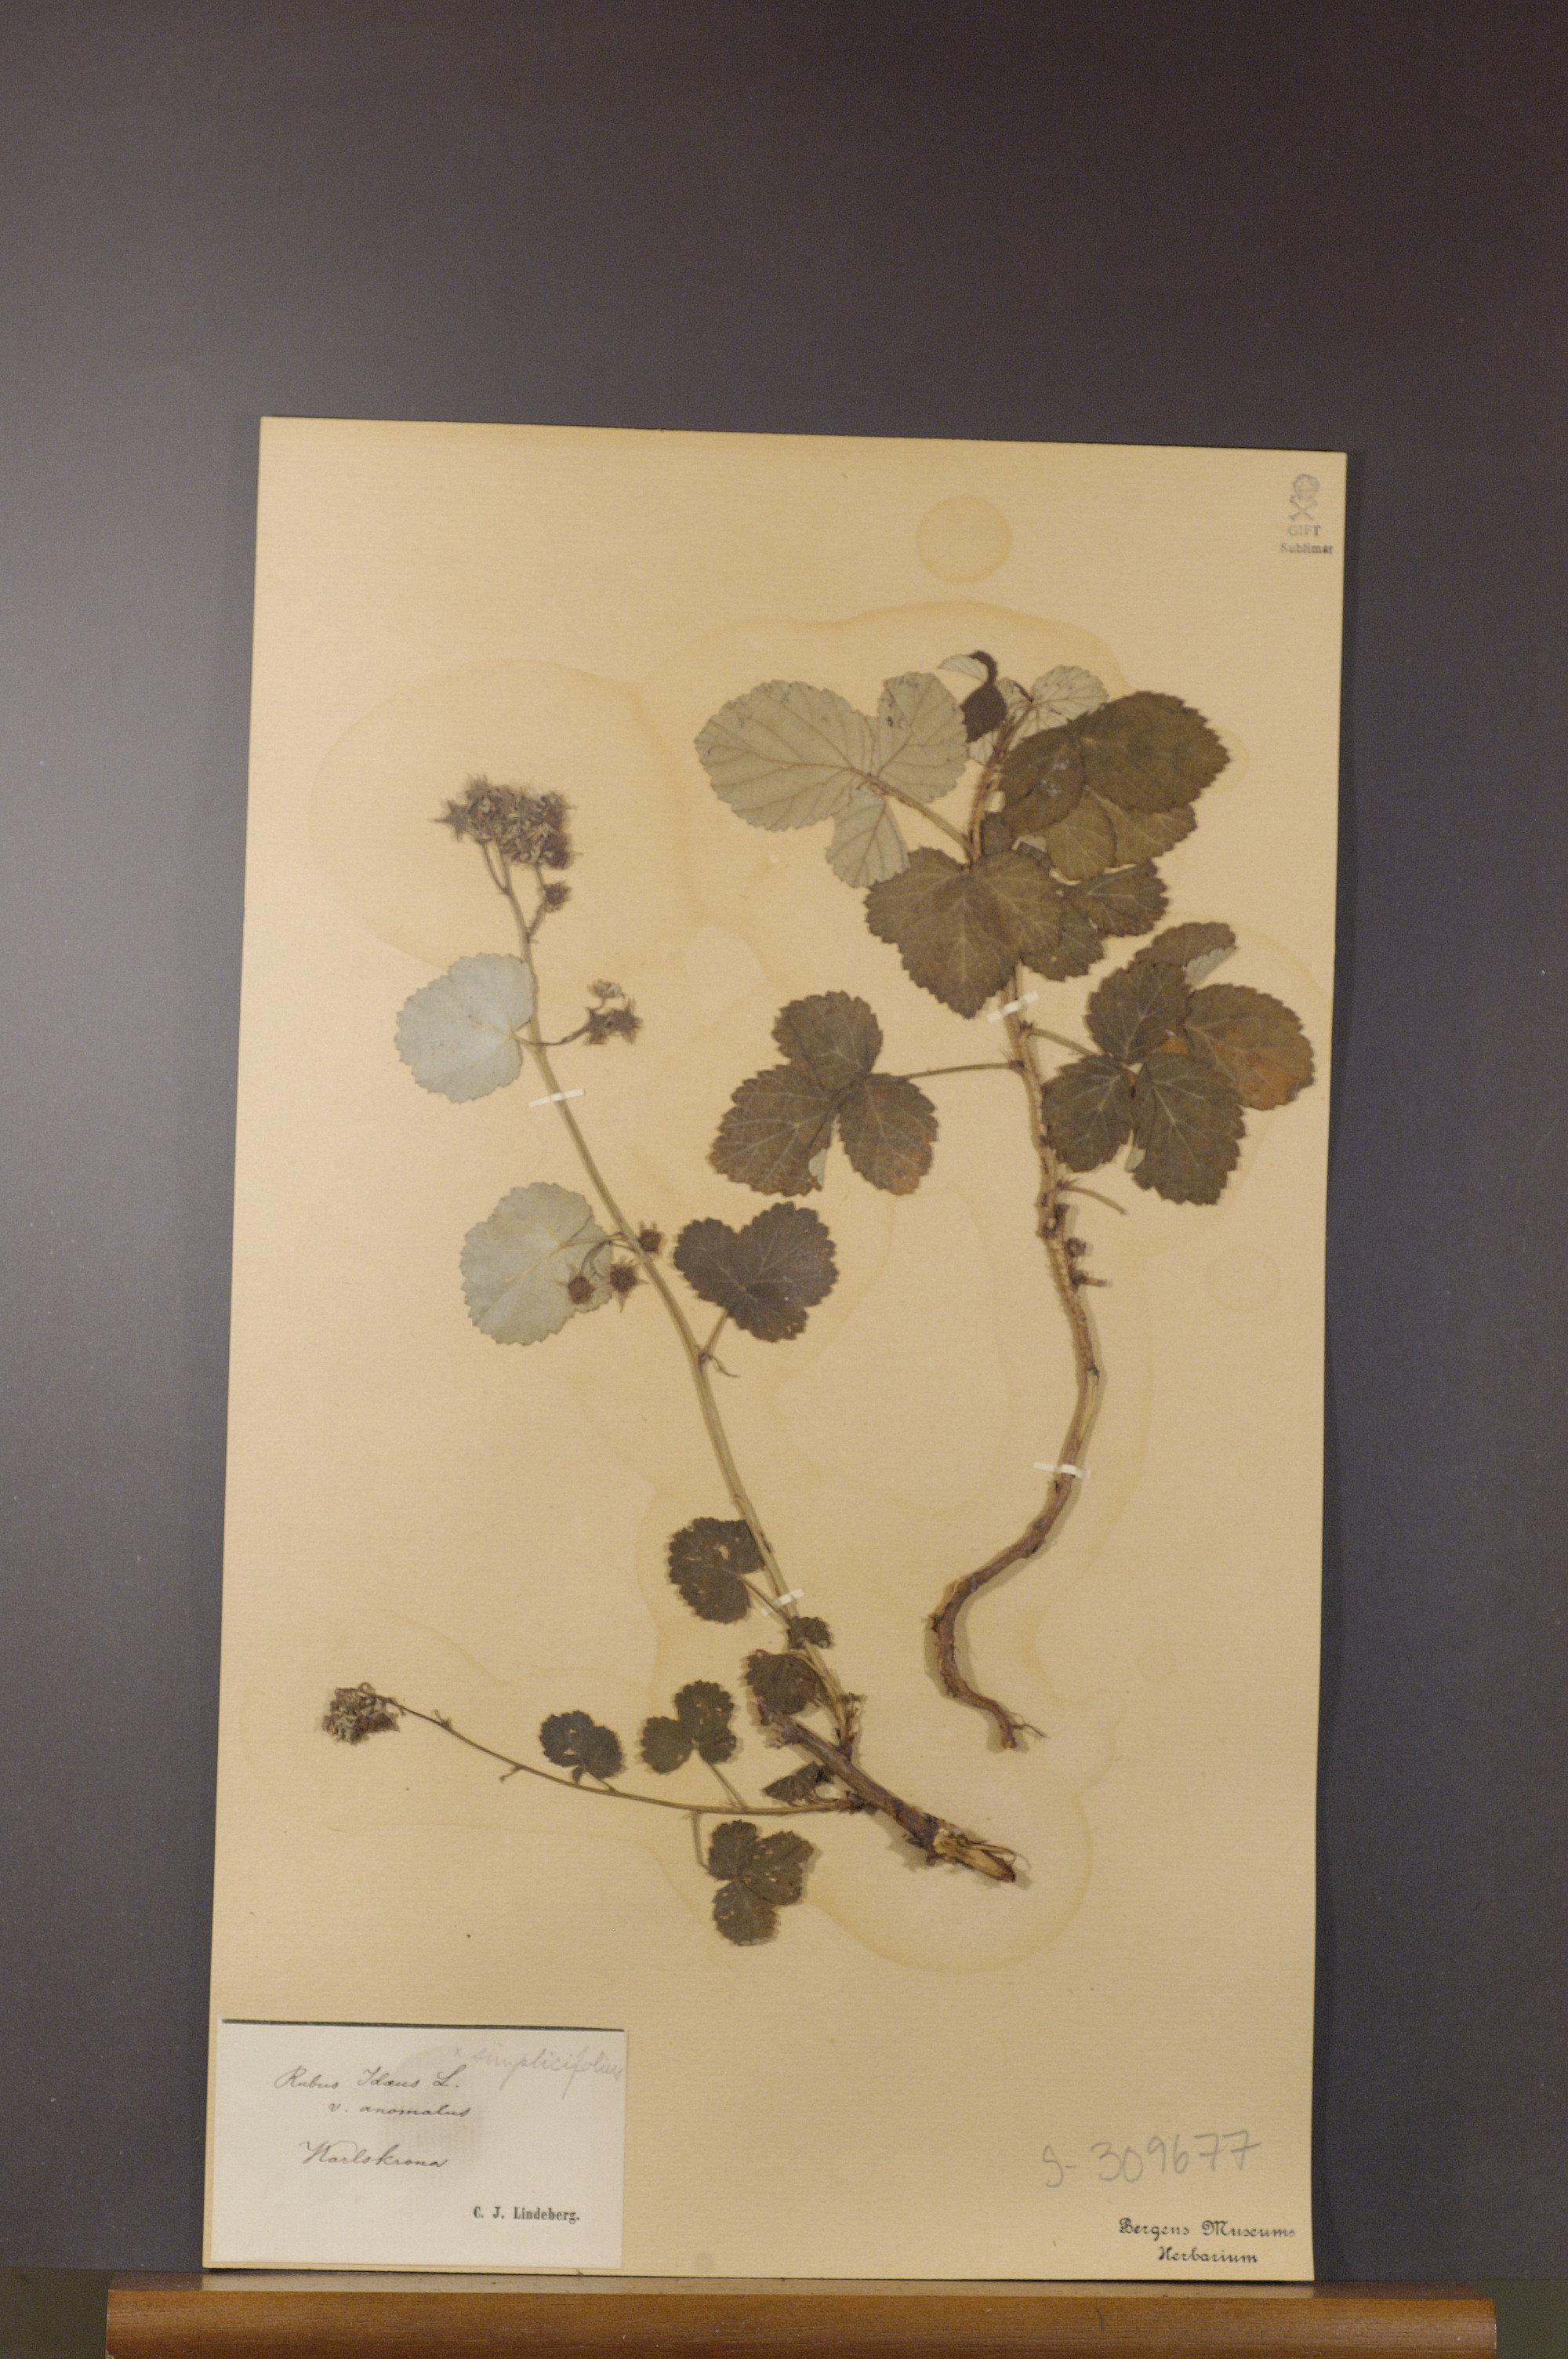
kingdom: Plantae
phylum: Tracheophyta
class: Magnoliopsida
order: Rosales
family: Rosaceae
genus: Rubus
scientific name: Rubus idaeus
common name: Raspberry
